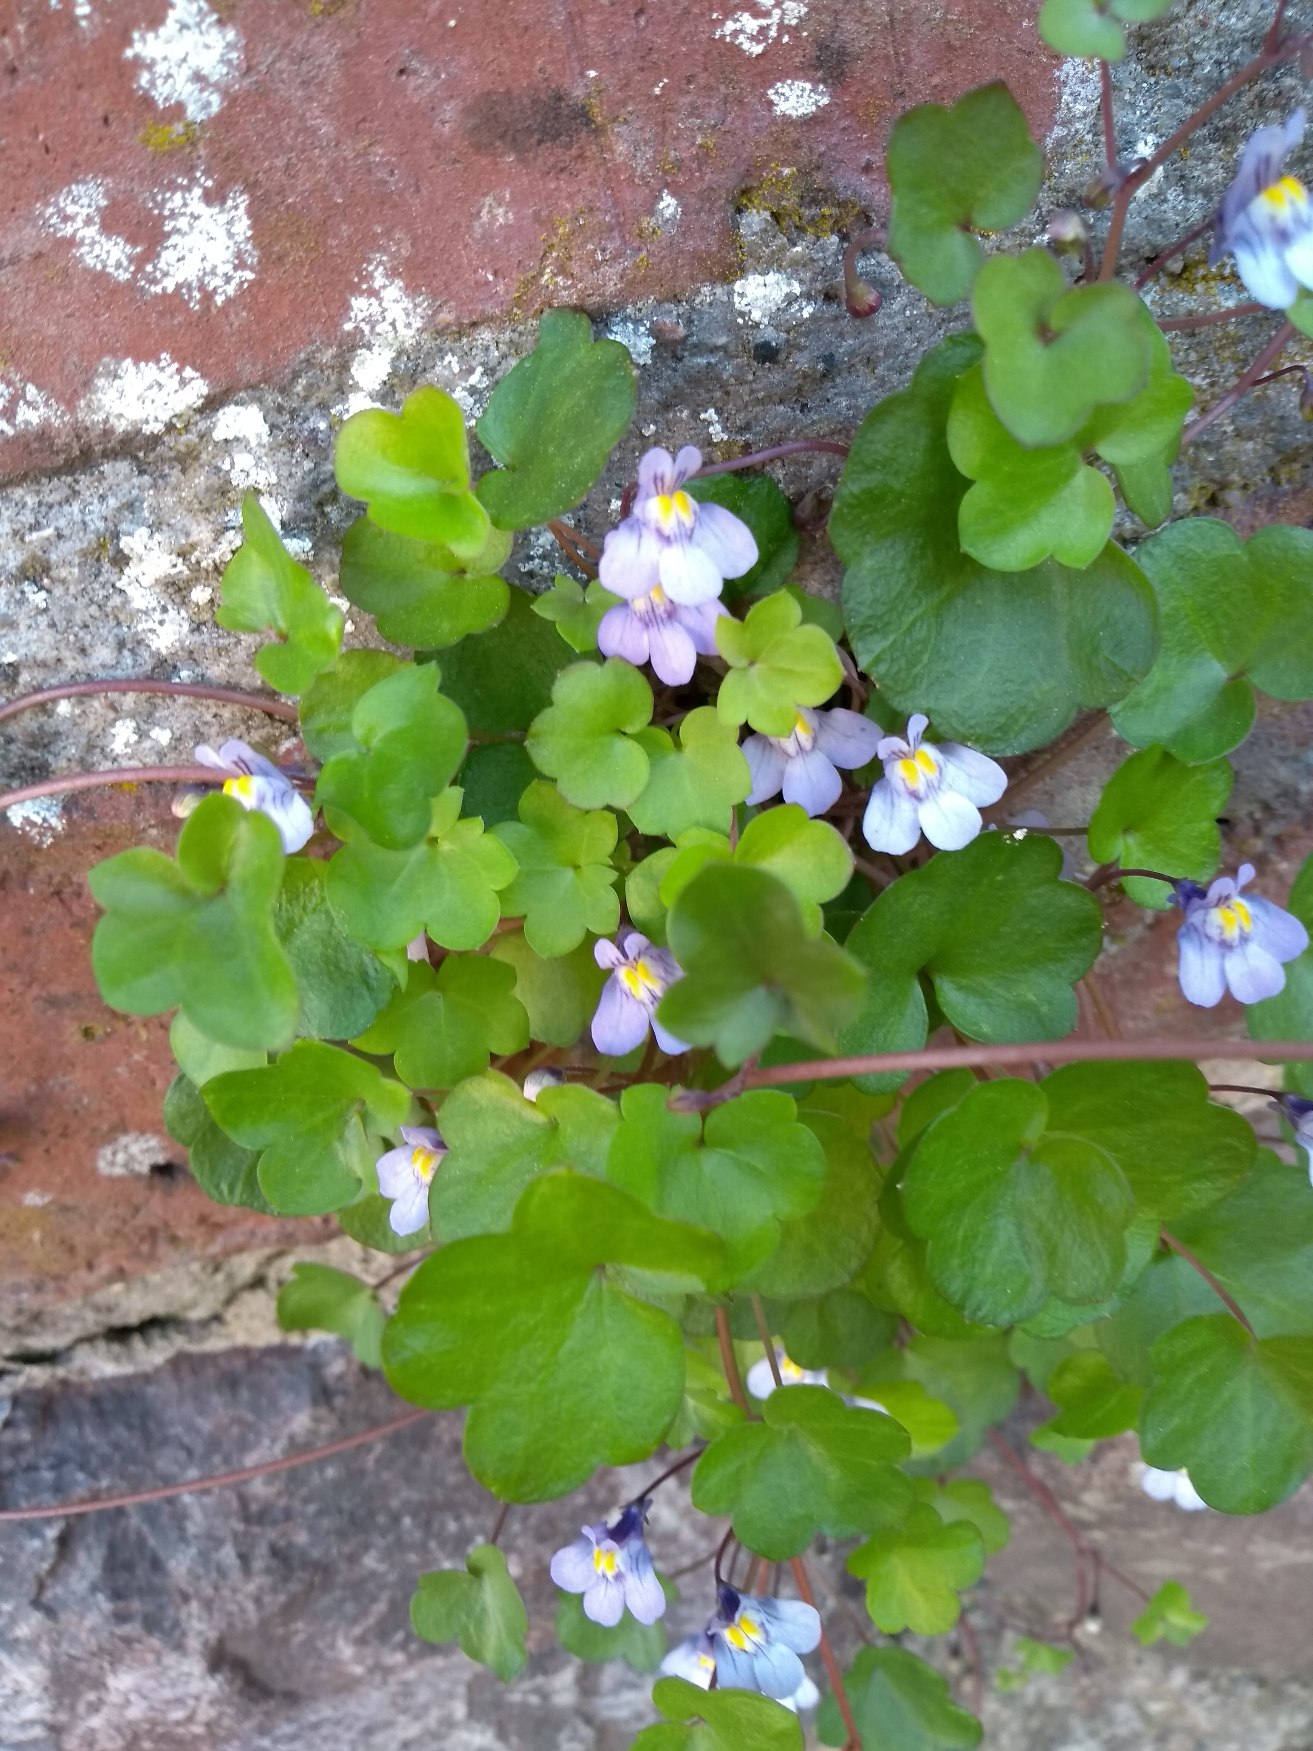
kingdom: Plantae
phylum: Tracheophyta
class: Magnoliopsida
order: Lamiales
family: Plantaginaceae
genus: Cymbalaria
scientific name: Cymbalaria muralis
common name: Vedbend-torskemund
